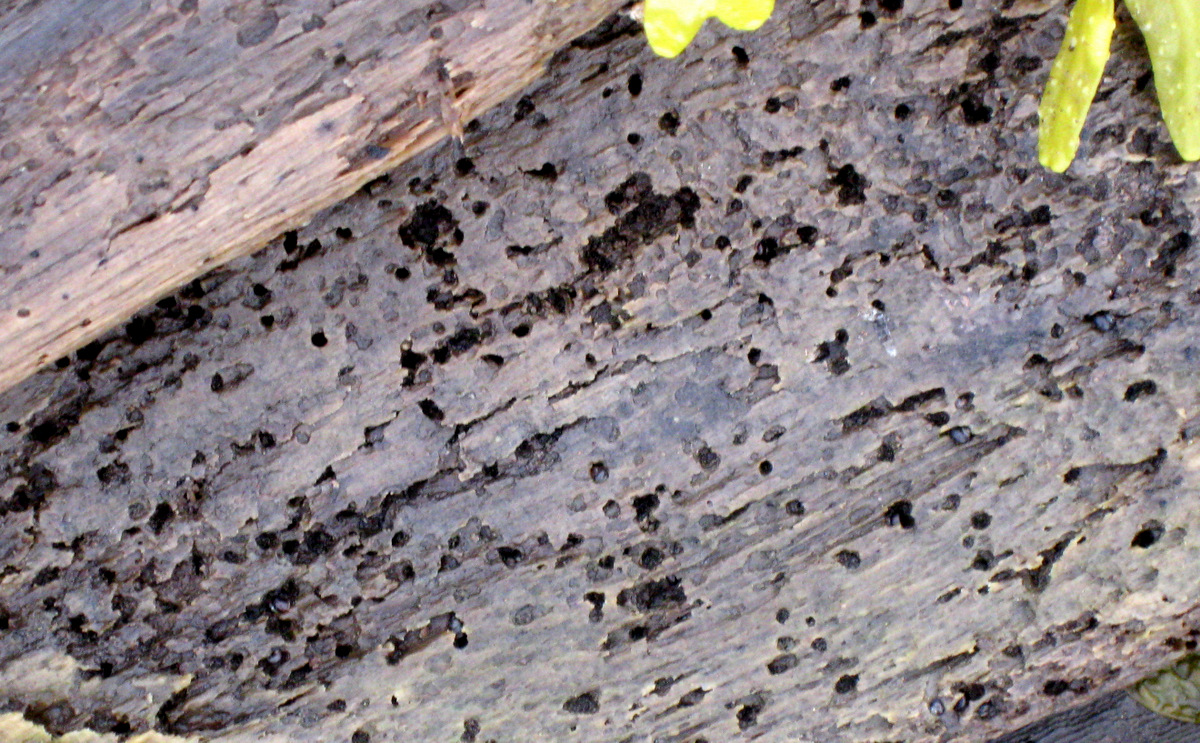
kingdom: Animalia
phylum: Arthropoda
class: Malacostraca
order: Isopoda
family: Limnoriidae
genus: Limnoria
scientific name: Limnoria lignorum
